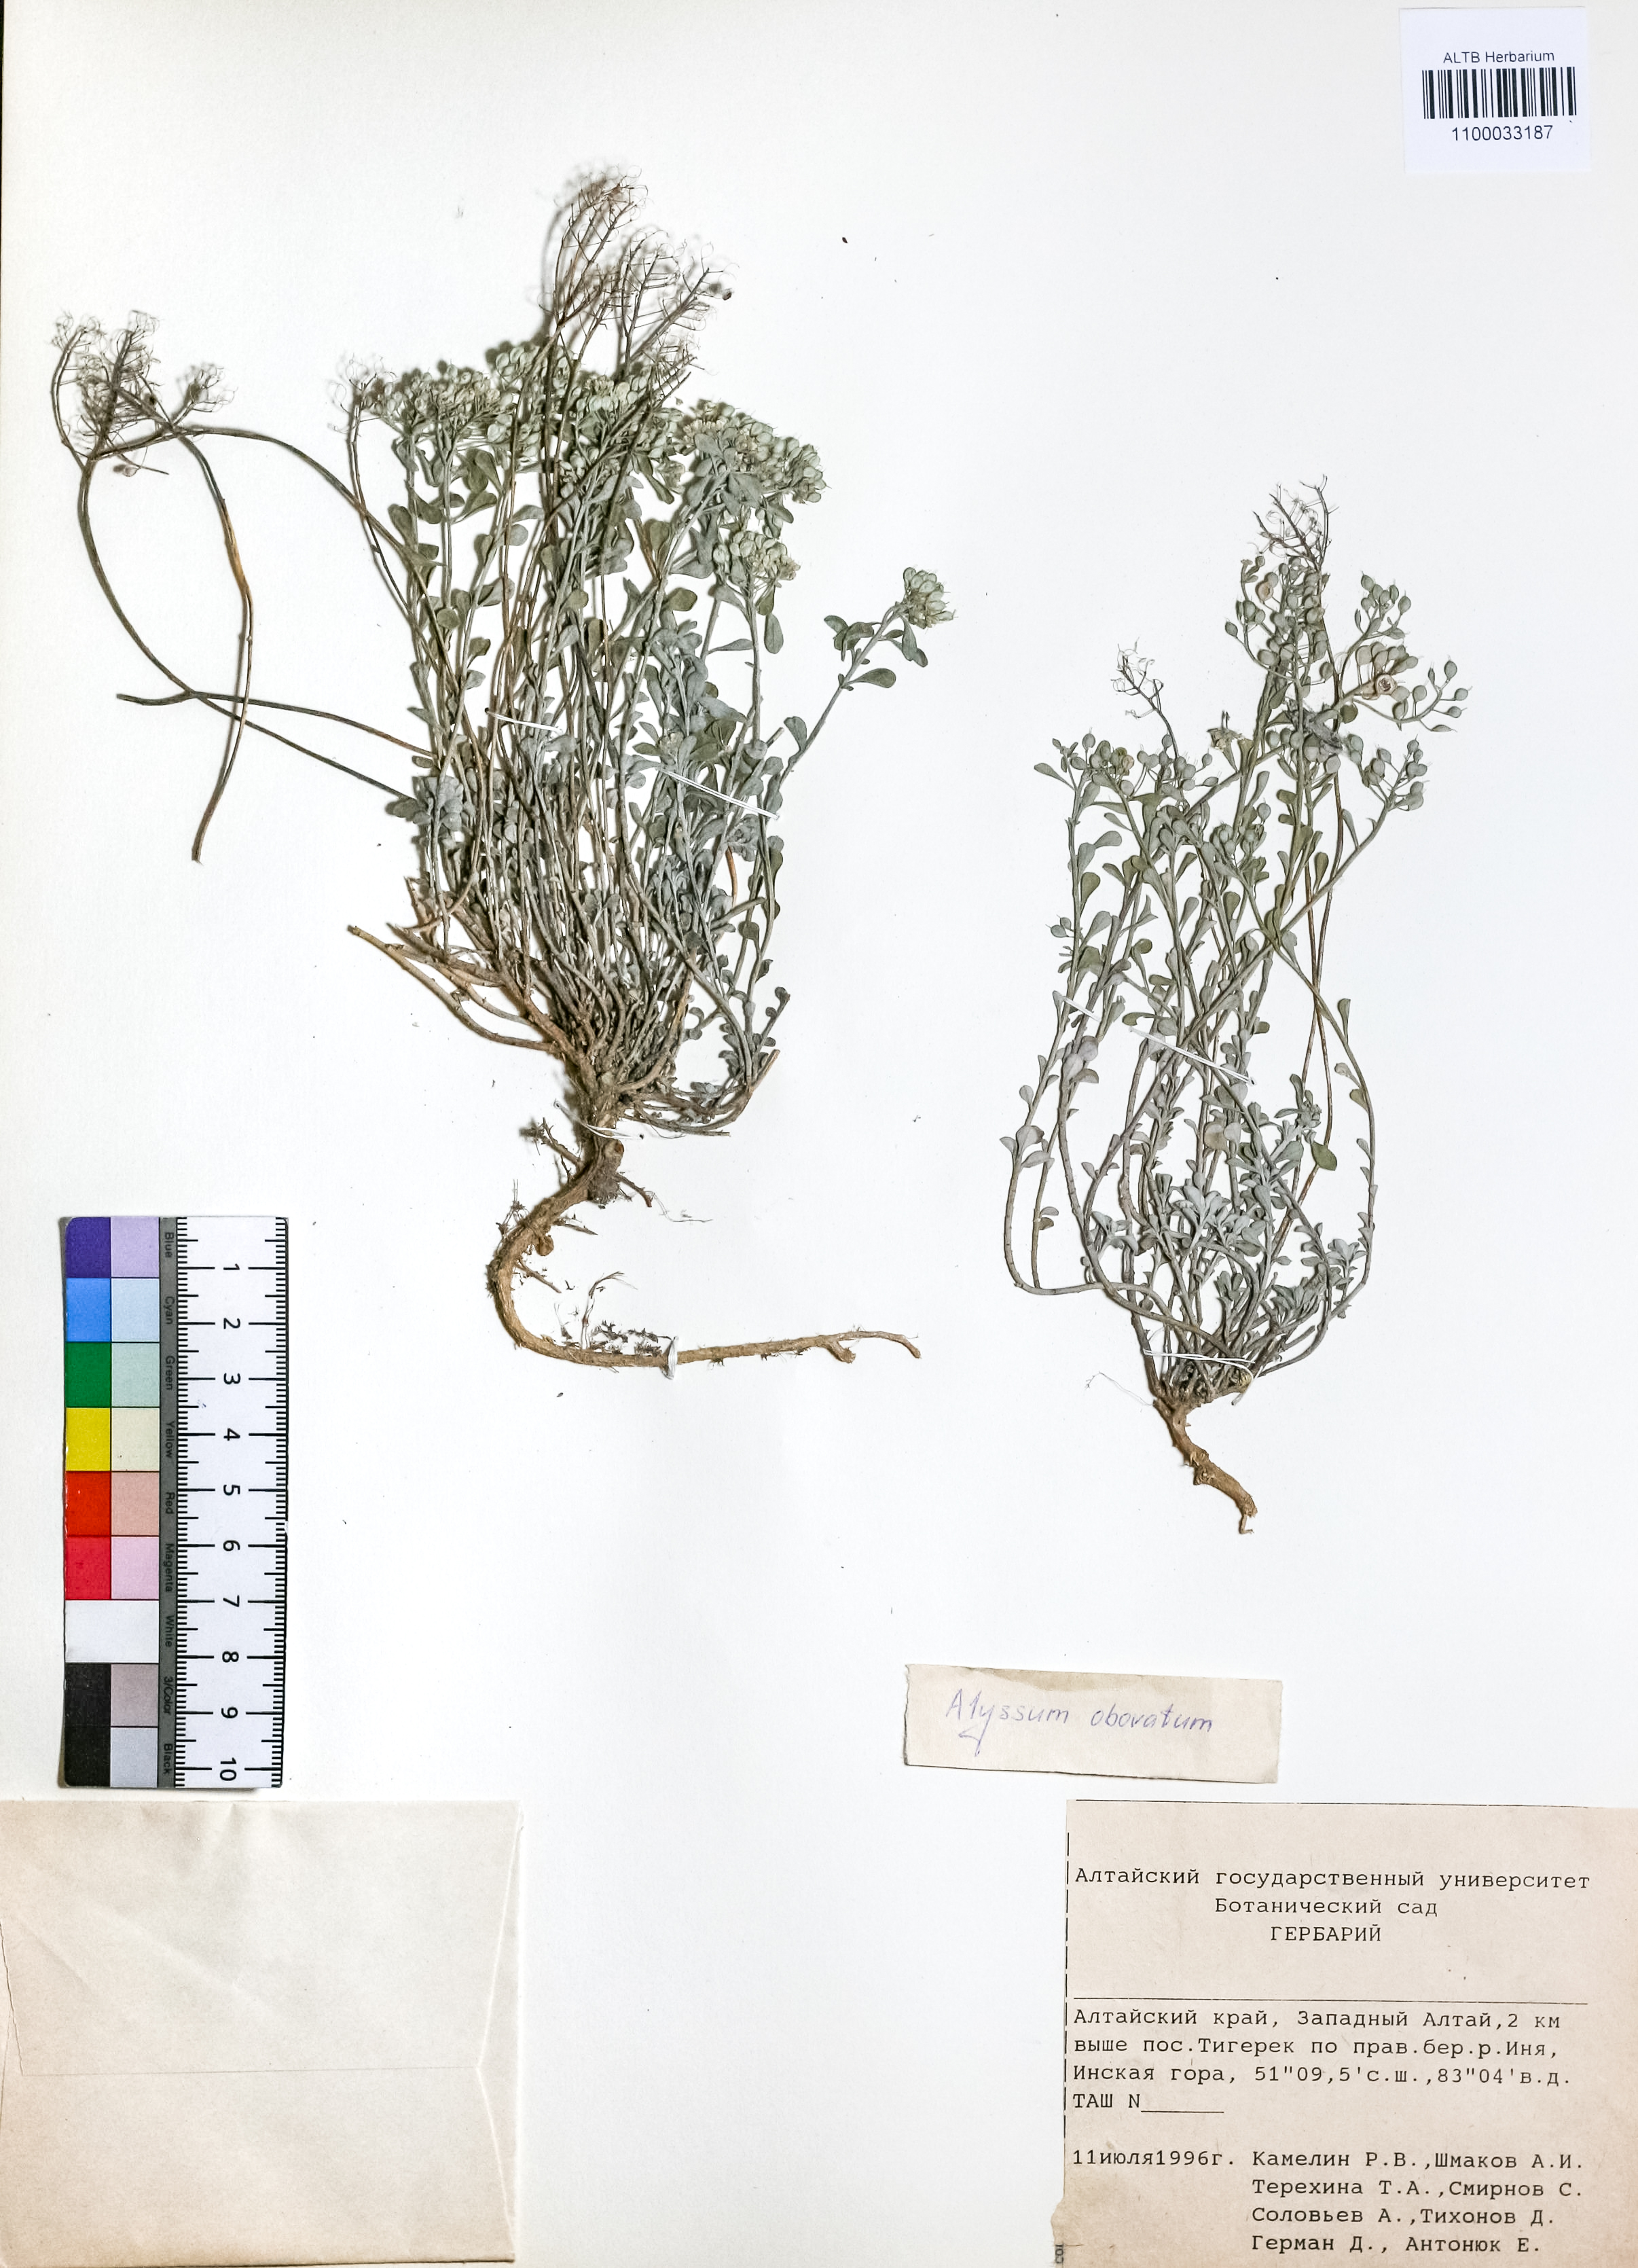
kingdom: Plantae
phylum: Tracheophyta
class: Magnoliopsida
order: Brassicales
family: Brassicaceae
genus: Odontarrhena
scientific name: Odontarrhena obovata
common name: American alyssum
